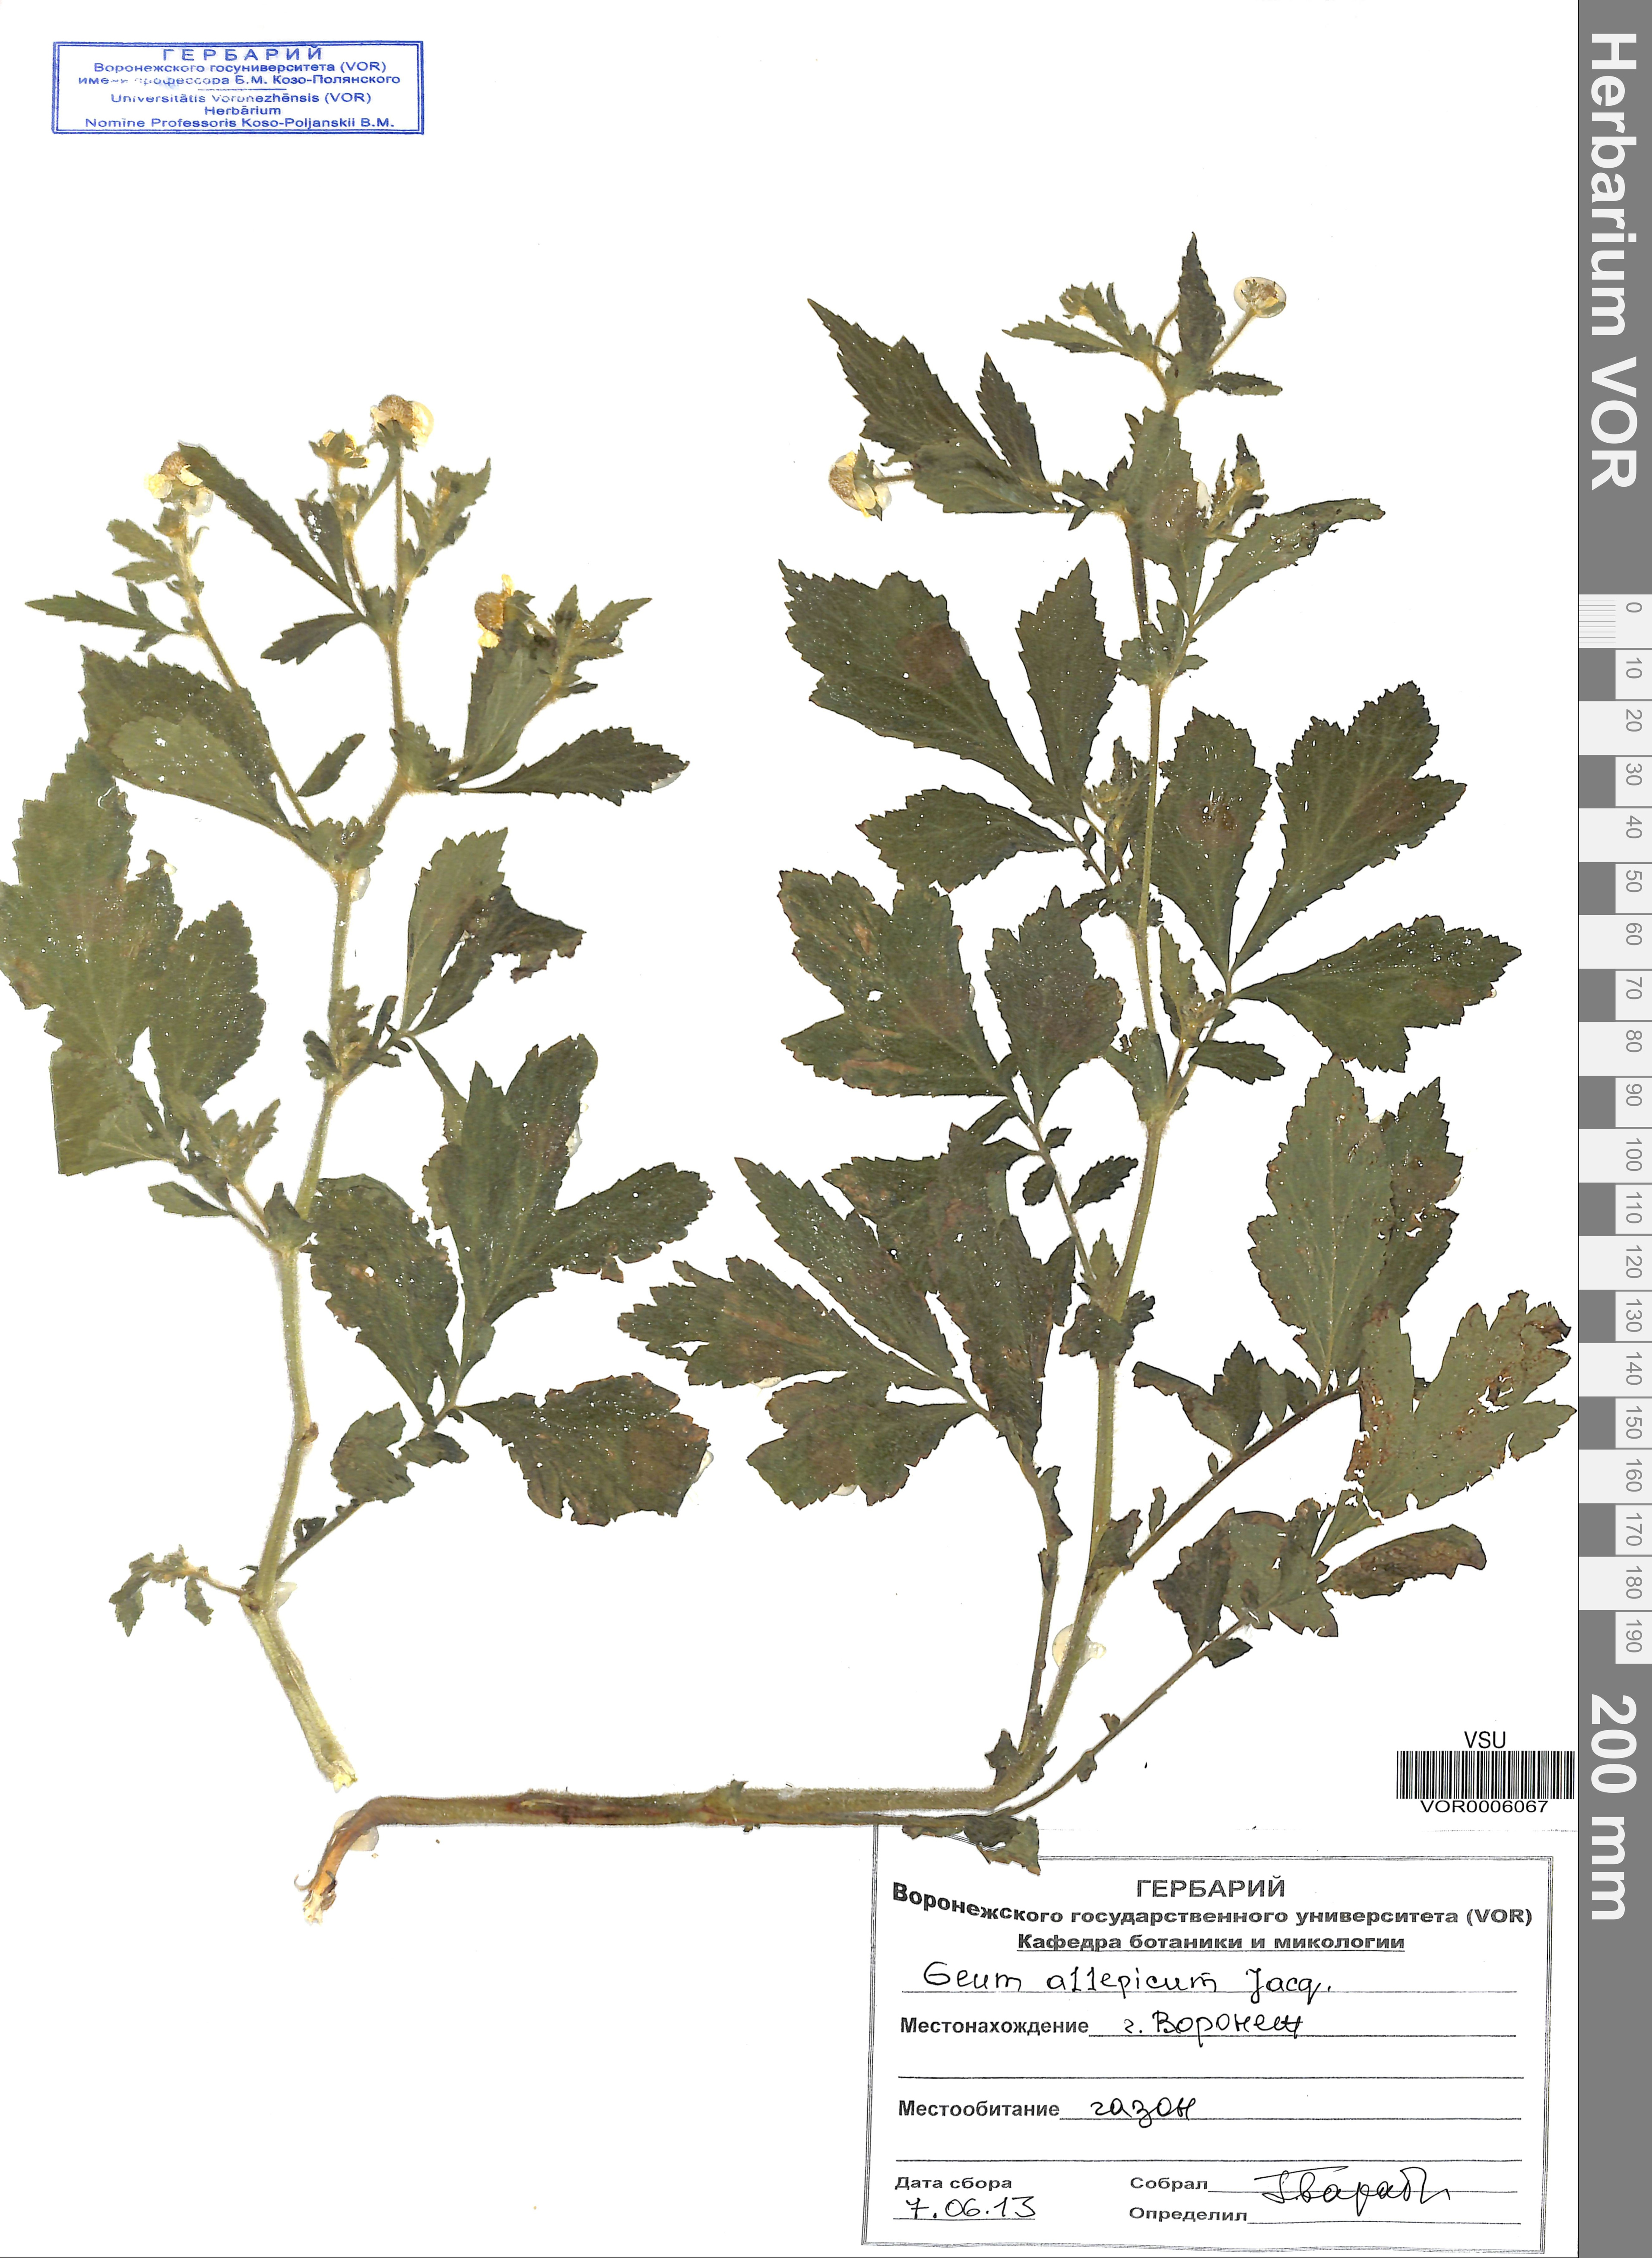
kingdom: Plantae
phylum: Tracheophyta
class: Magnoliopsida
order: Rosales
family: Rosaceae
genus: Geum
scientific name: Geum aleppicum
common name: Yellow avens
